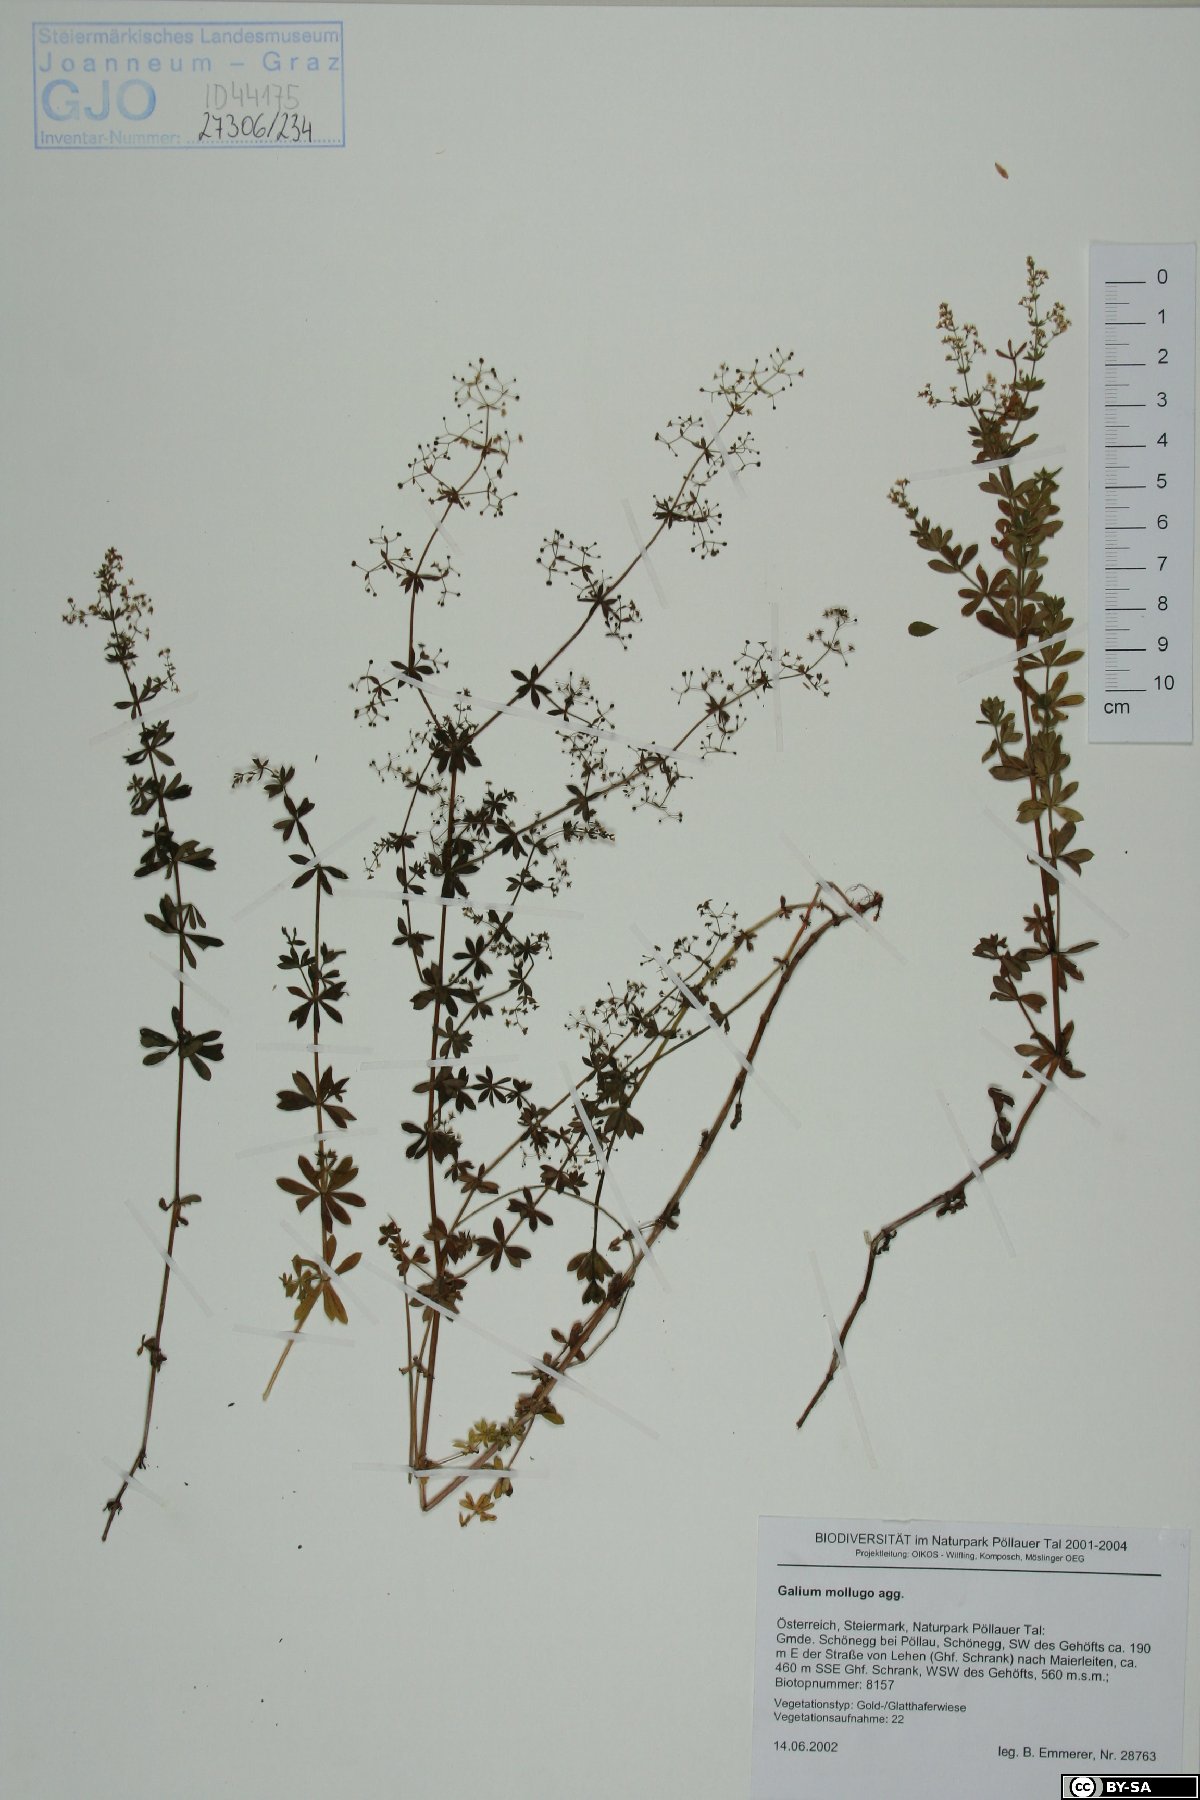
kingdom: Plantae
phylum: Tracheophyta
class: Magnoliopsida
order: Gentianales
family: Rubiaceae
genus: Galium
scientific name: Galium mollugo
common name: Hedge bedstraw
